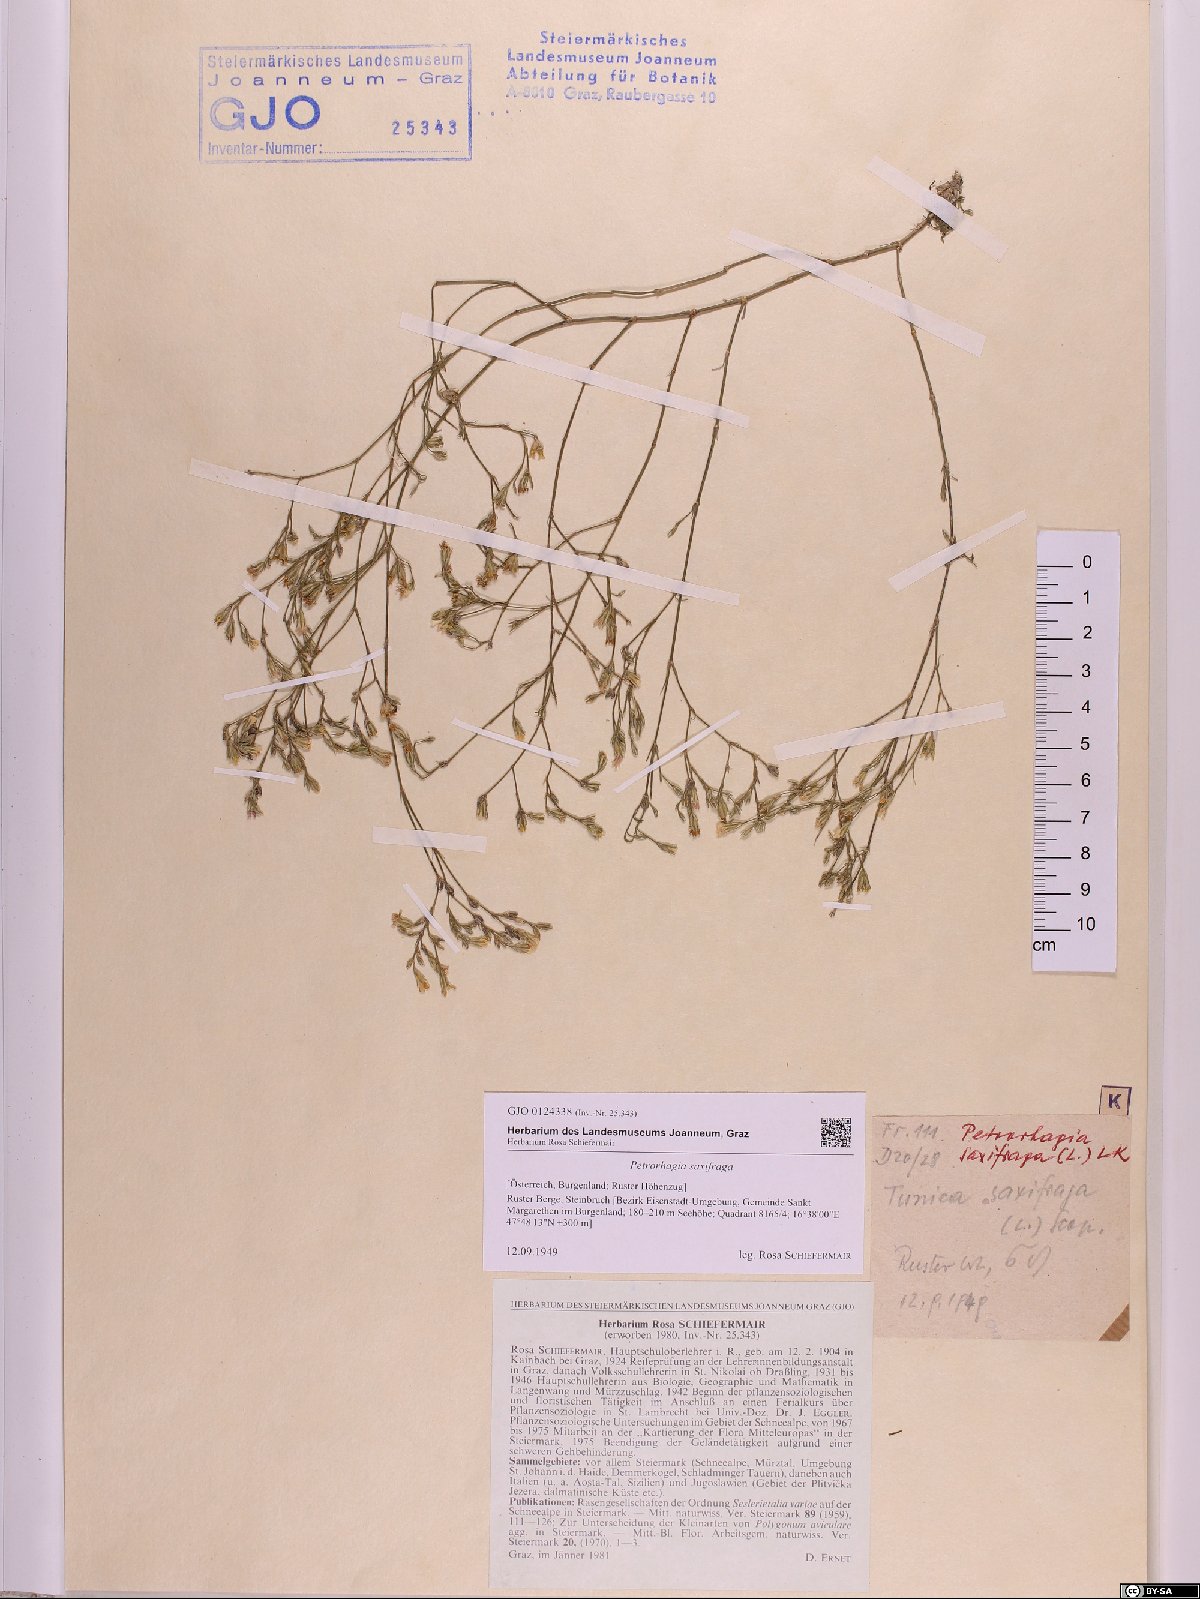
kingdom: Plantae
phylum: Tracheophyta
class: Magnoliopsida
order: Caryophyllales
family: Caryophyllaceae
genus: Petrorhagia
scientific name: Petrorhagia saxifraga
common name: Tunicflower
